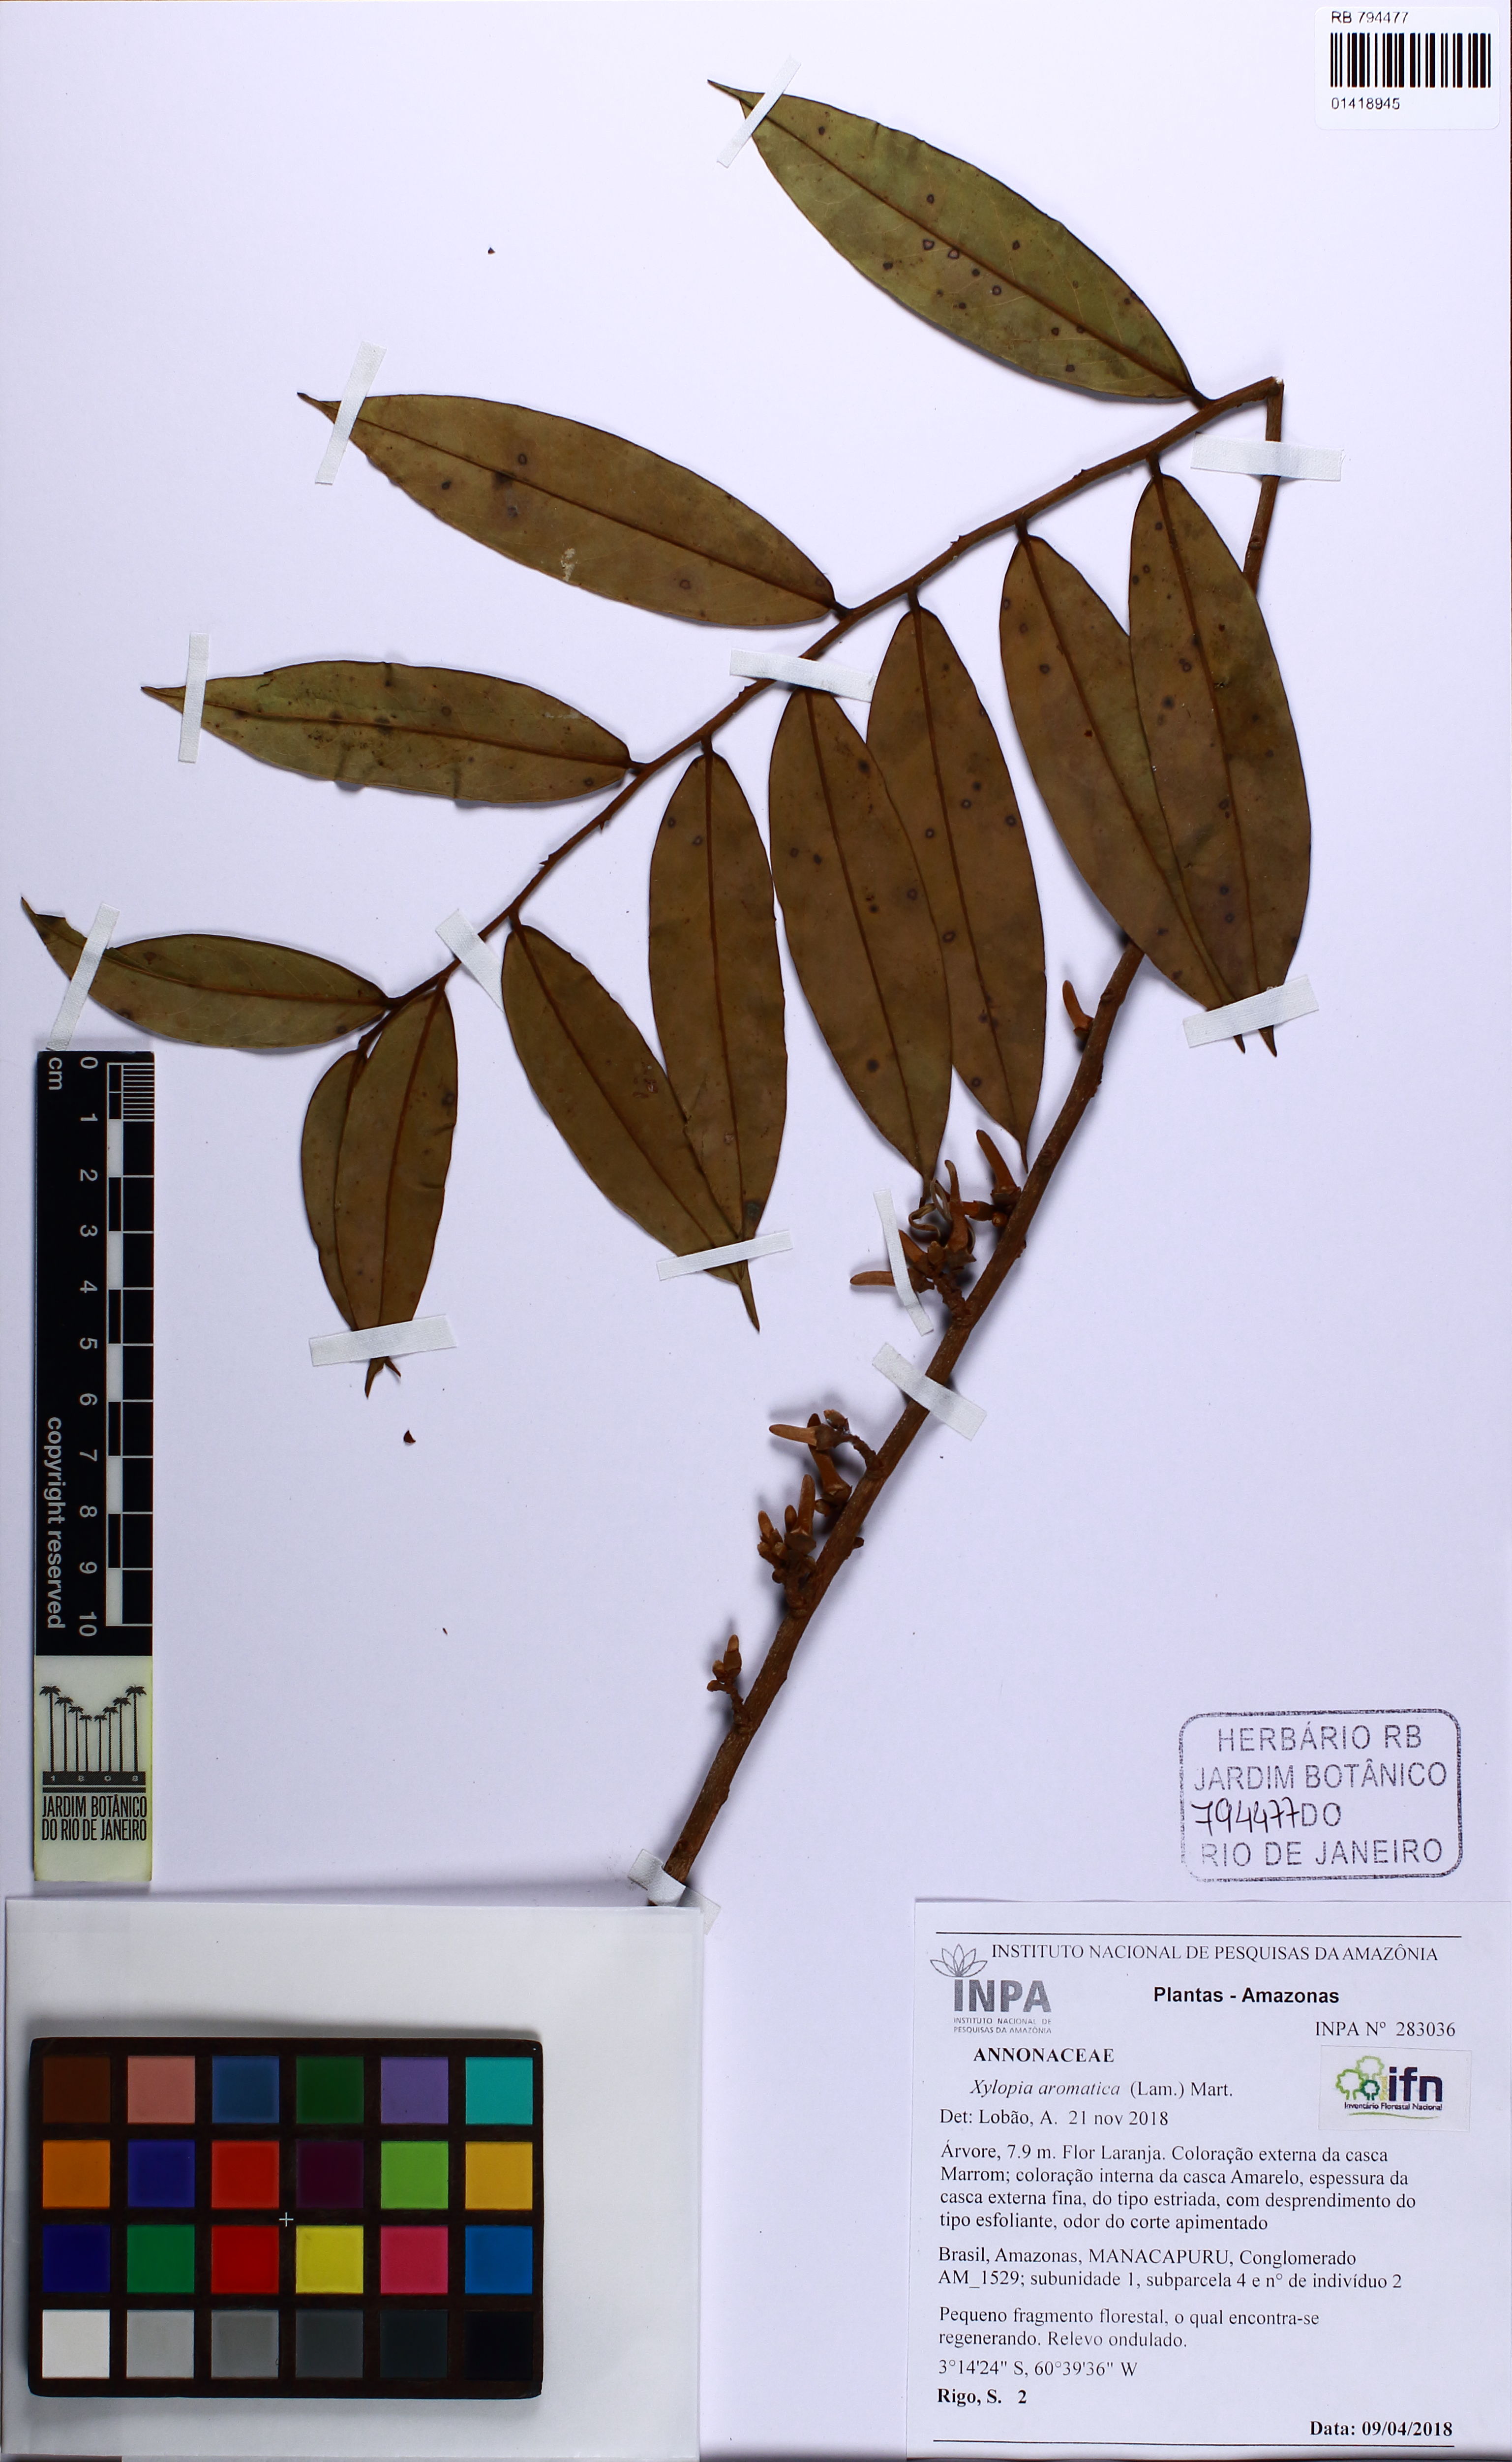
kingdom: Plantae
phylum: Tracheophyta
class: Magnoliopsida
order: Magnoliales
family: Annonaceae
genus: Xylopia
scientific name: Xylopia aromatica
